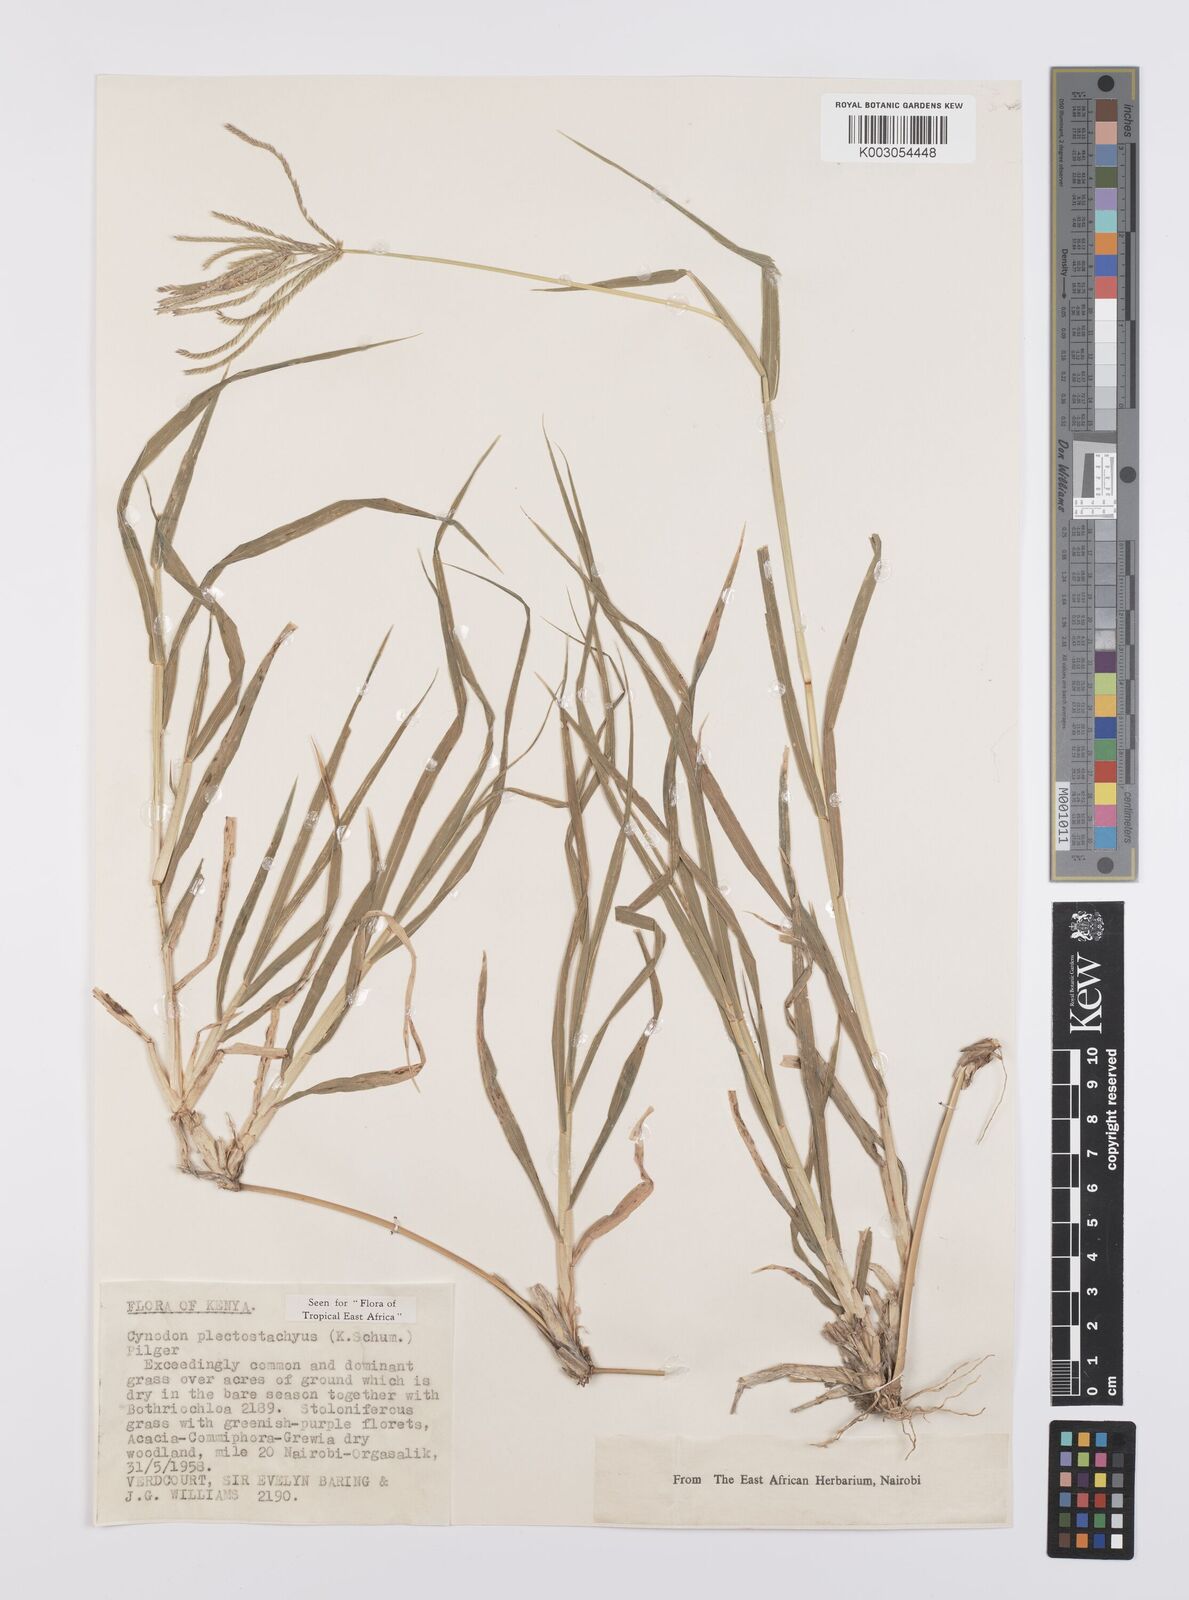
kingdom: Plantae
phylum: Tracheophyta
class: Liliopsida
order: Poales
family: Poaceae
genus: Cynodon
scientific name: Cynodon plectostachyus
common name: Stargrass
